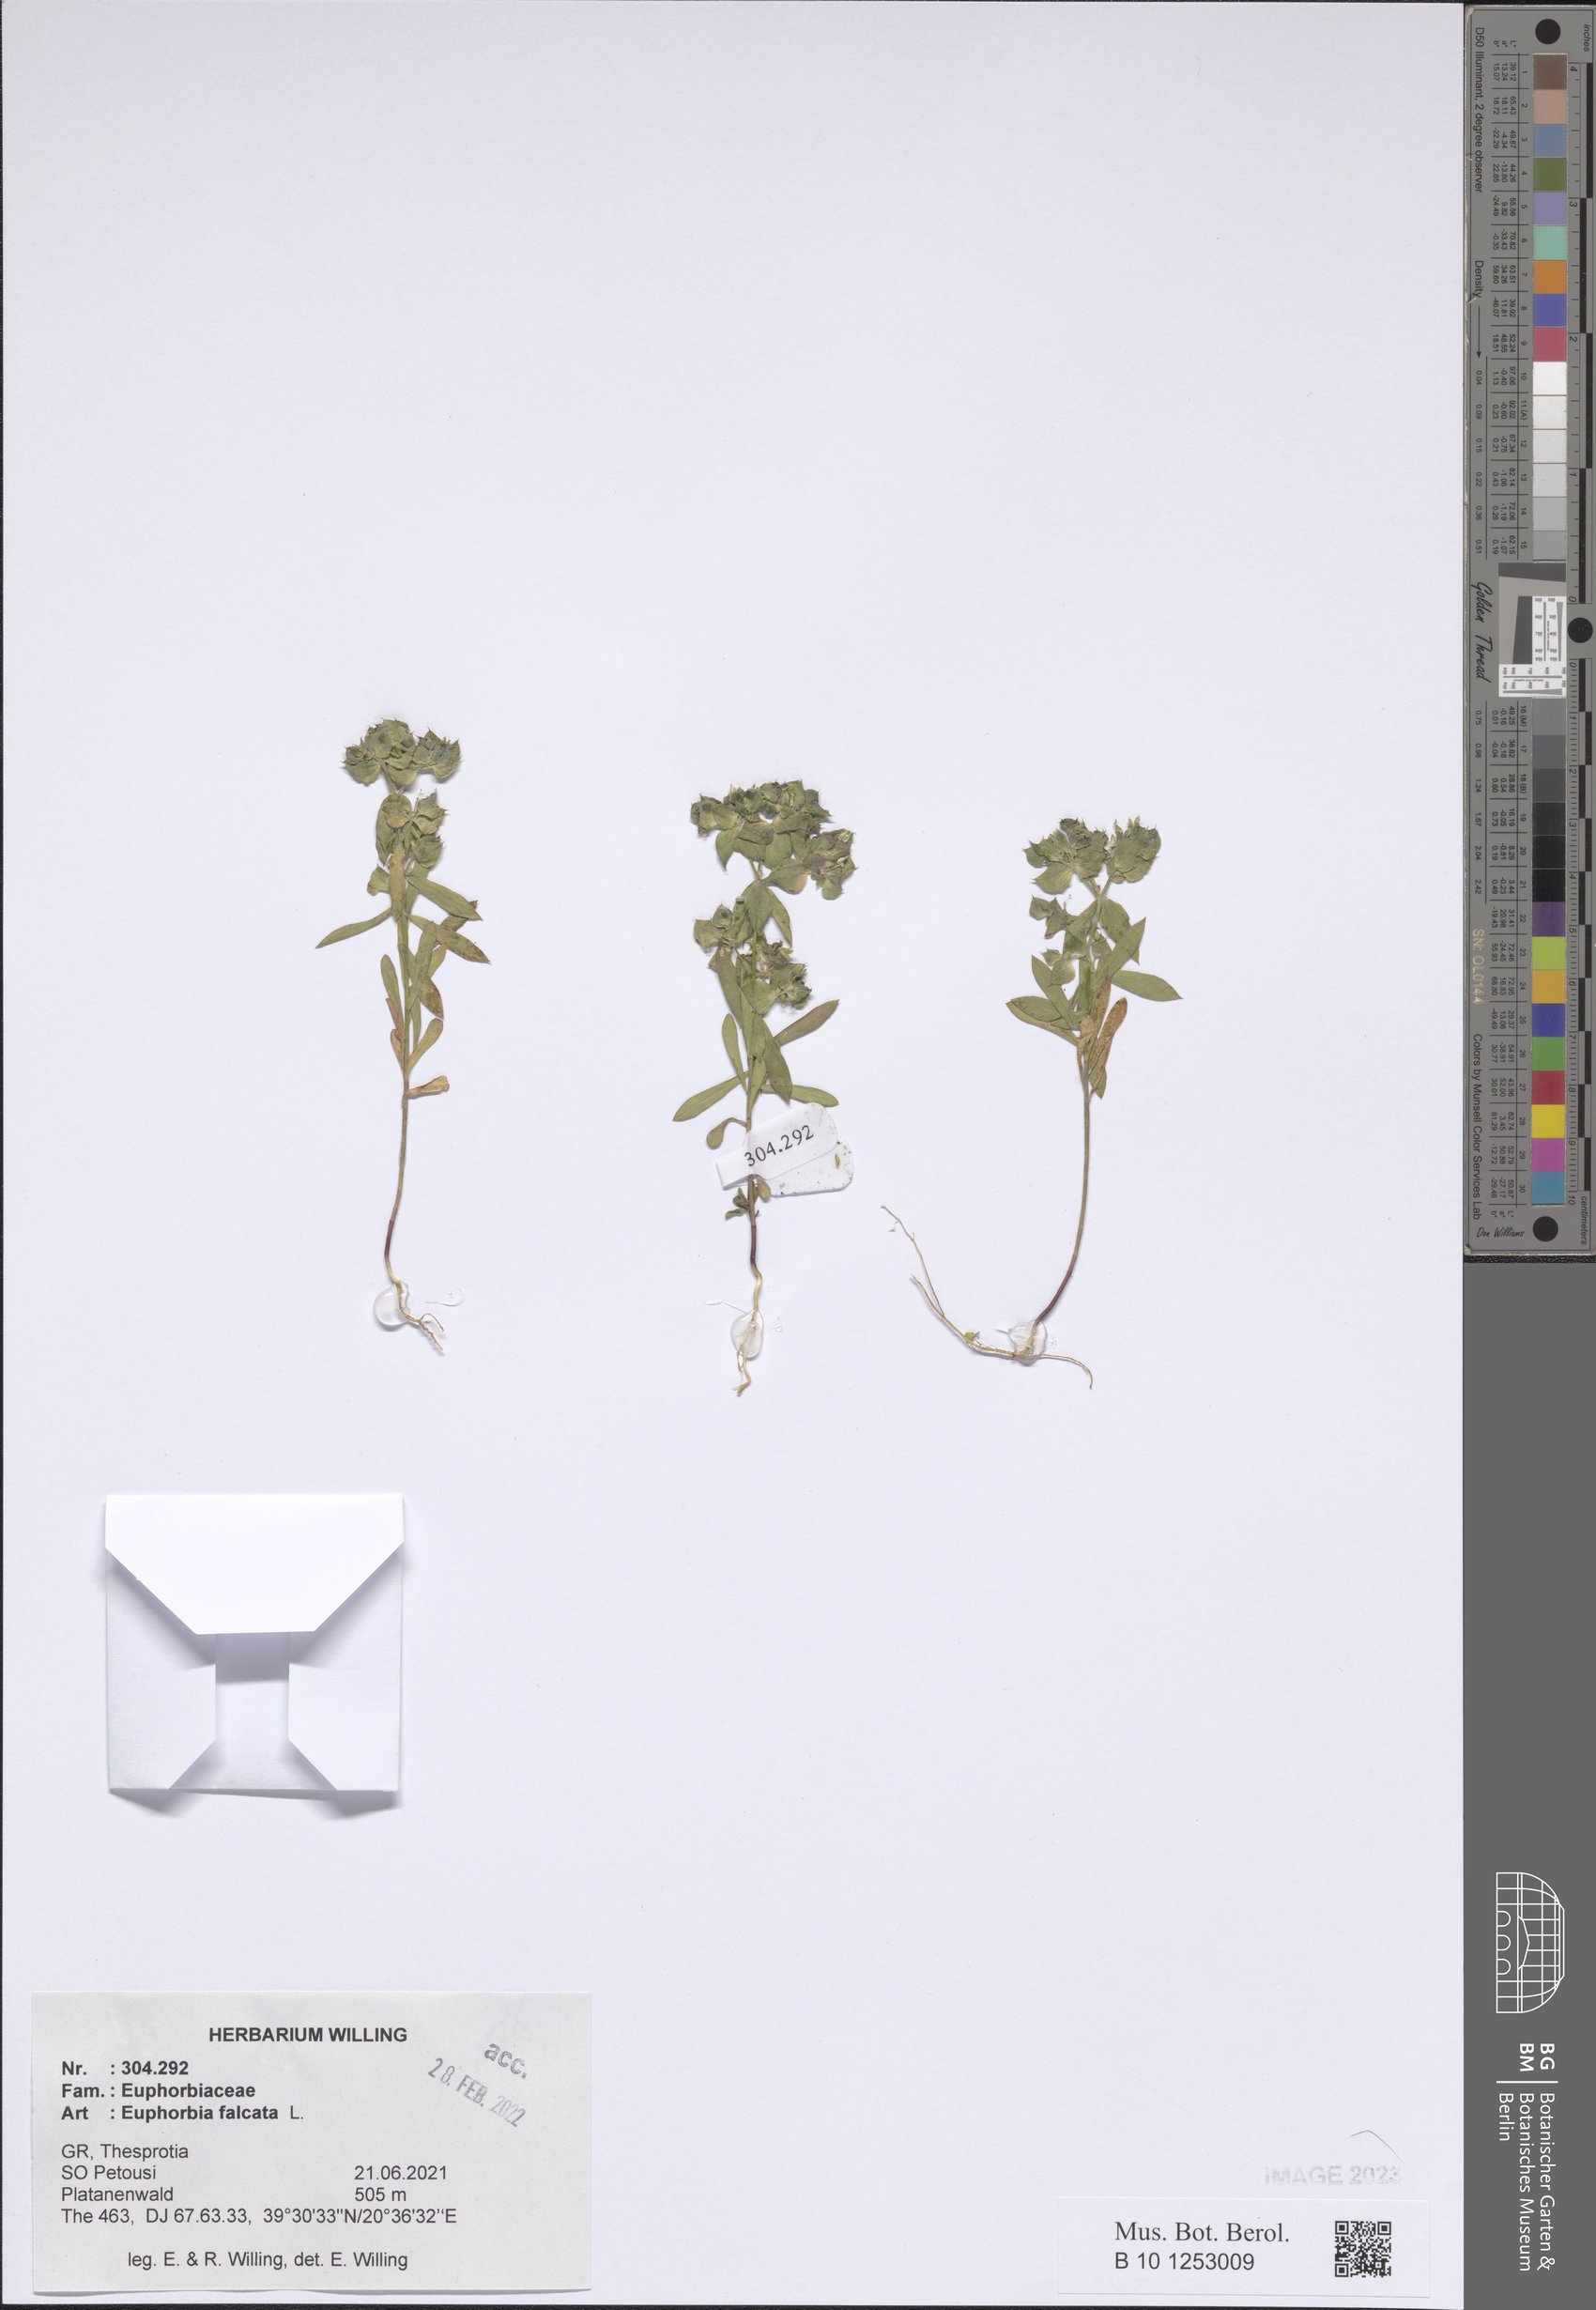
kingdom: Plantae
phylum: Tracheophyta
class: Magnoliopsida
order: Malpighiales
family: Euphorbiaceae
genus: Euphorbia
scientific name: Euphorbia falcata
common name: Sickle spurge
